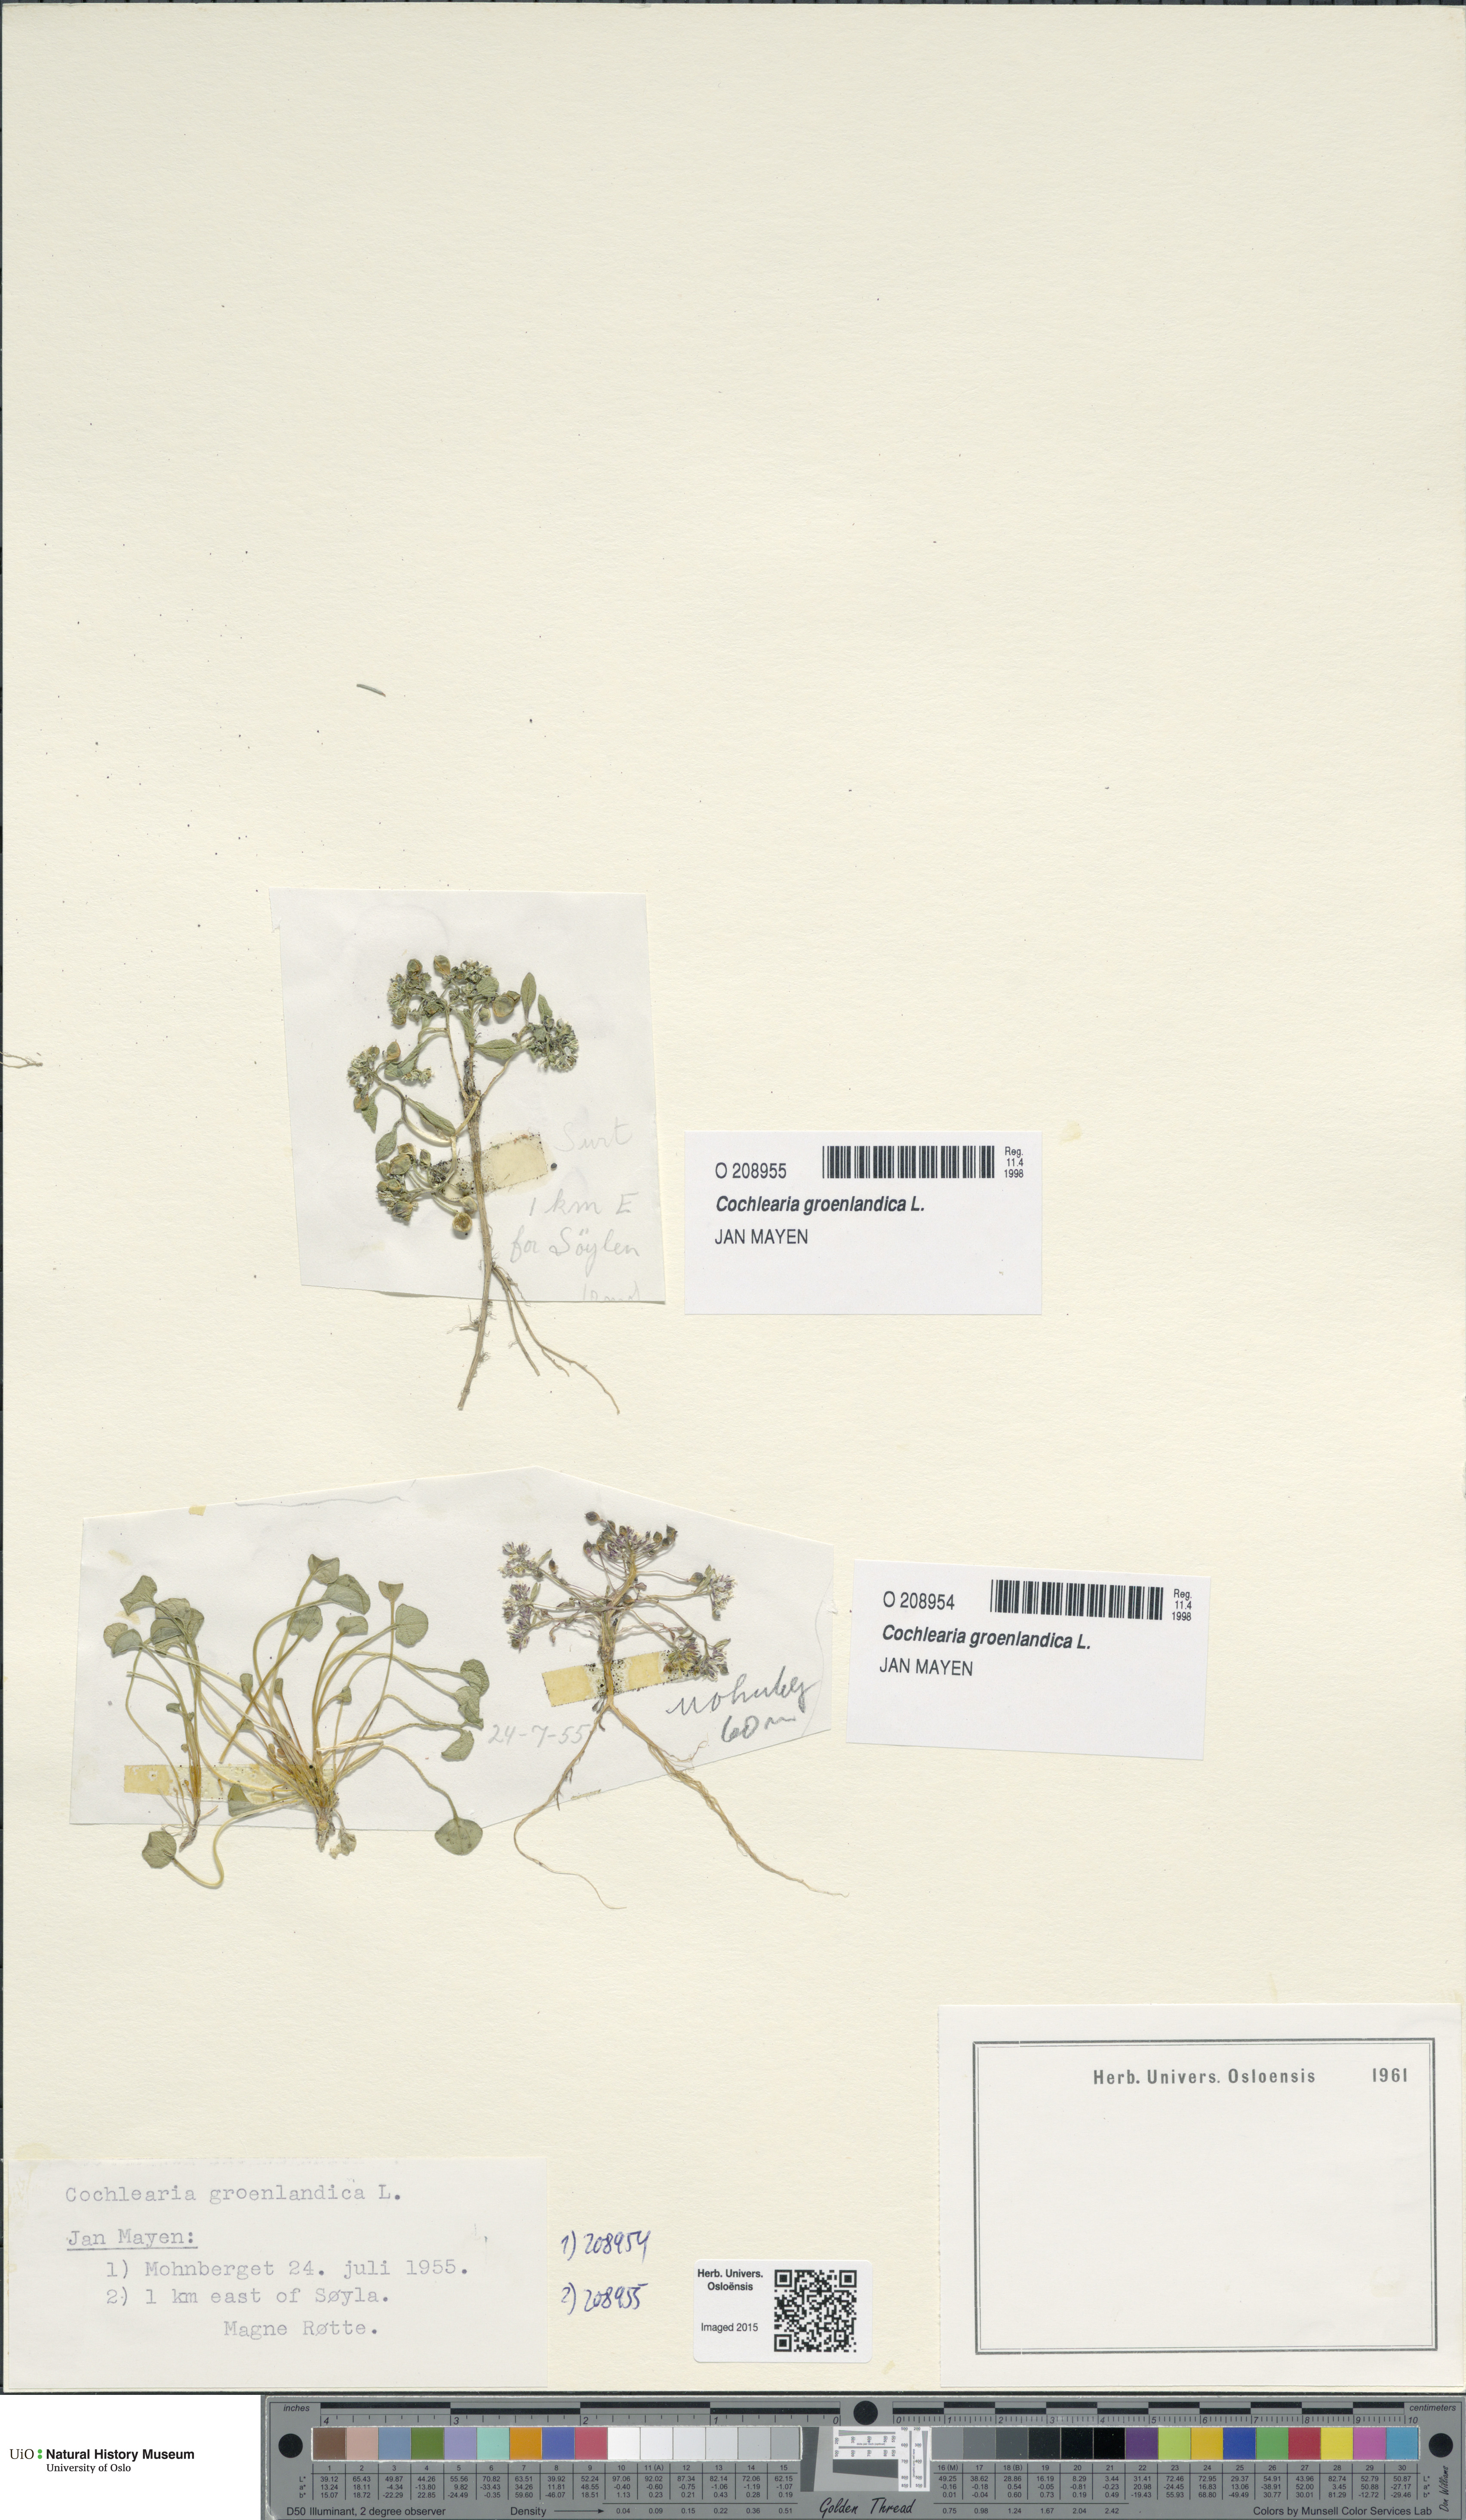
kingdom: Plantae
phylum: Tracheophyta
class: Magnoliopsida
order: Brassicales
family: Brassicaceae
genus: Cochlearia
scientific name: Cochlearia groenlandica
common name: Danish scurvygrass
